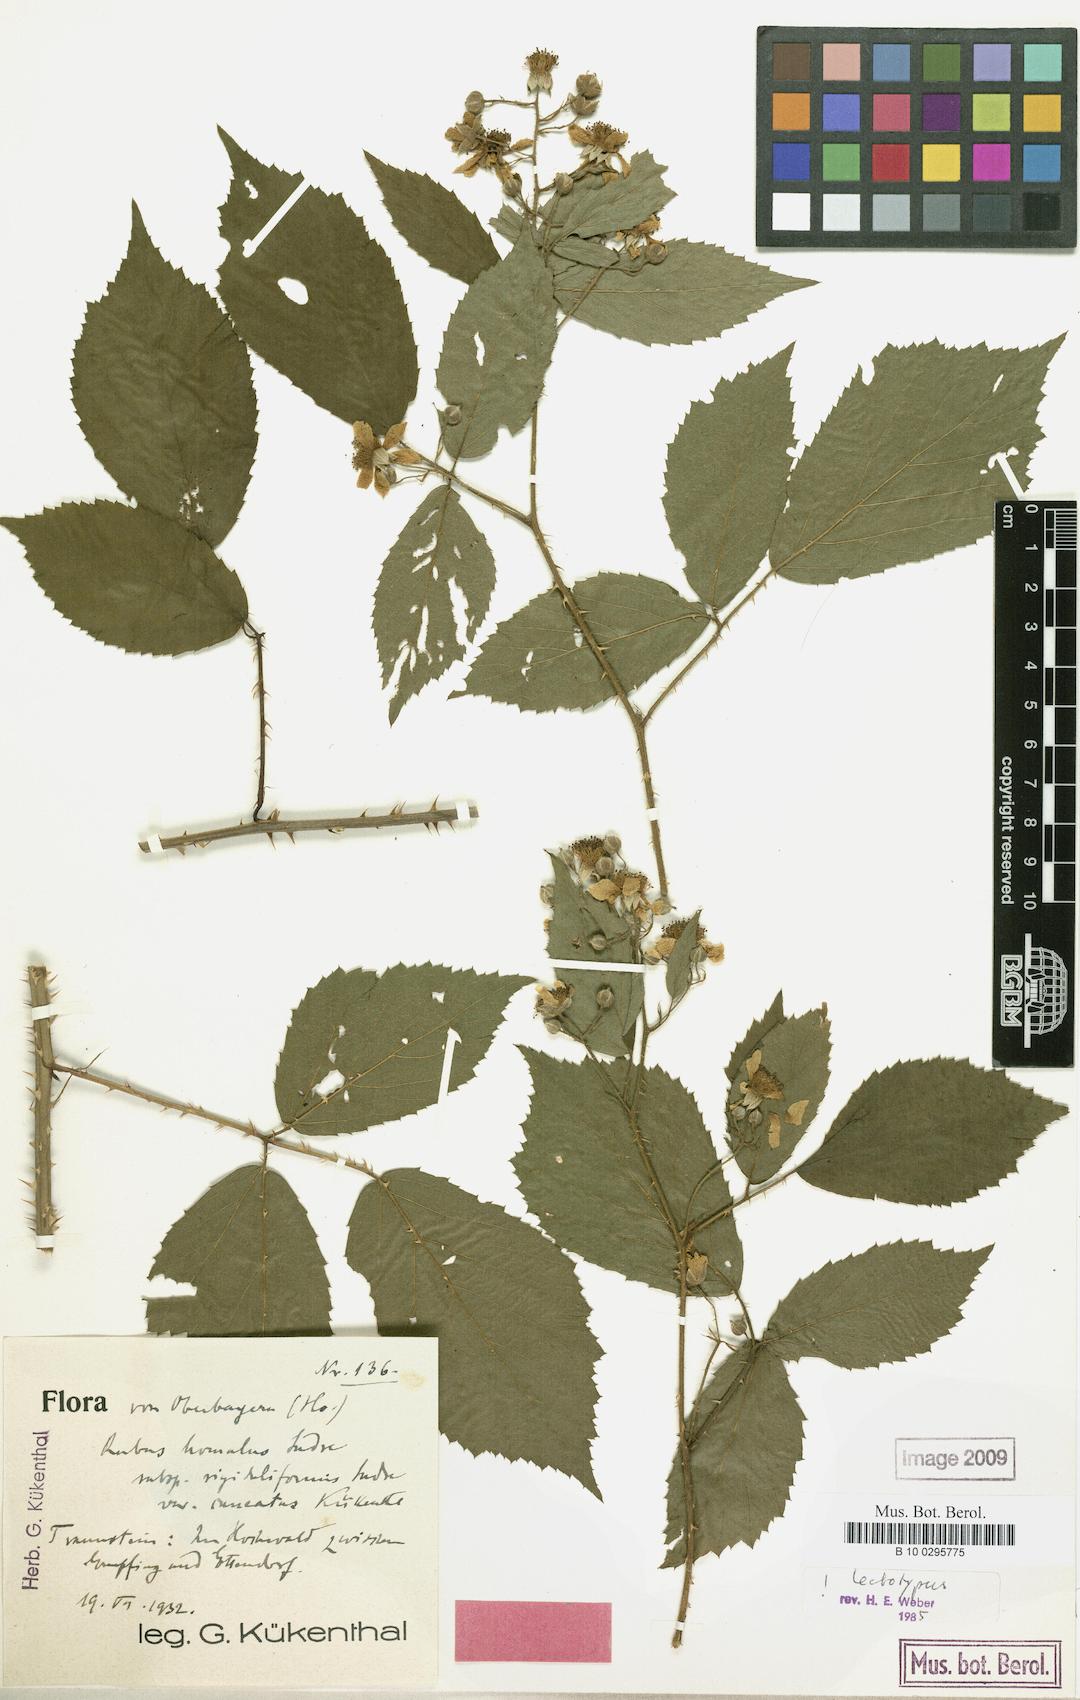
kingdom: Plantae
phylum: Tracheophyta
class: Magnoliopsida
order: Rosales
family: Rosaceae
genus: Rubus
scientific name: Rubus homalus
